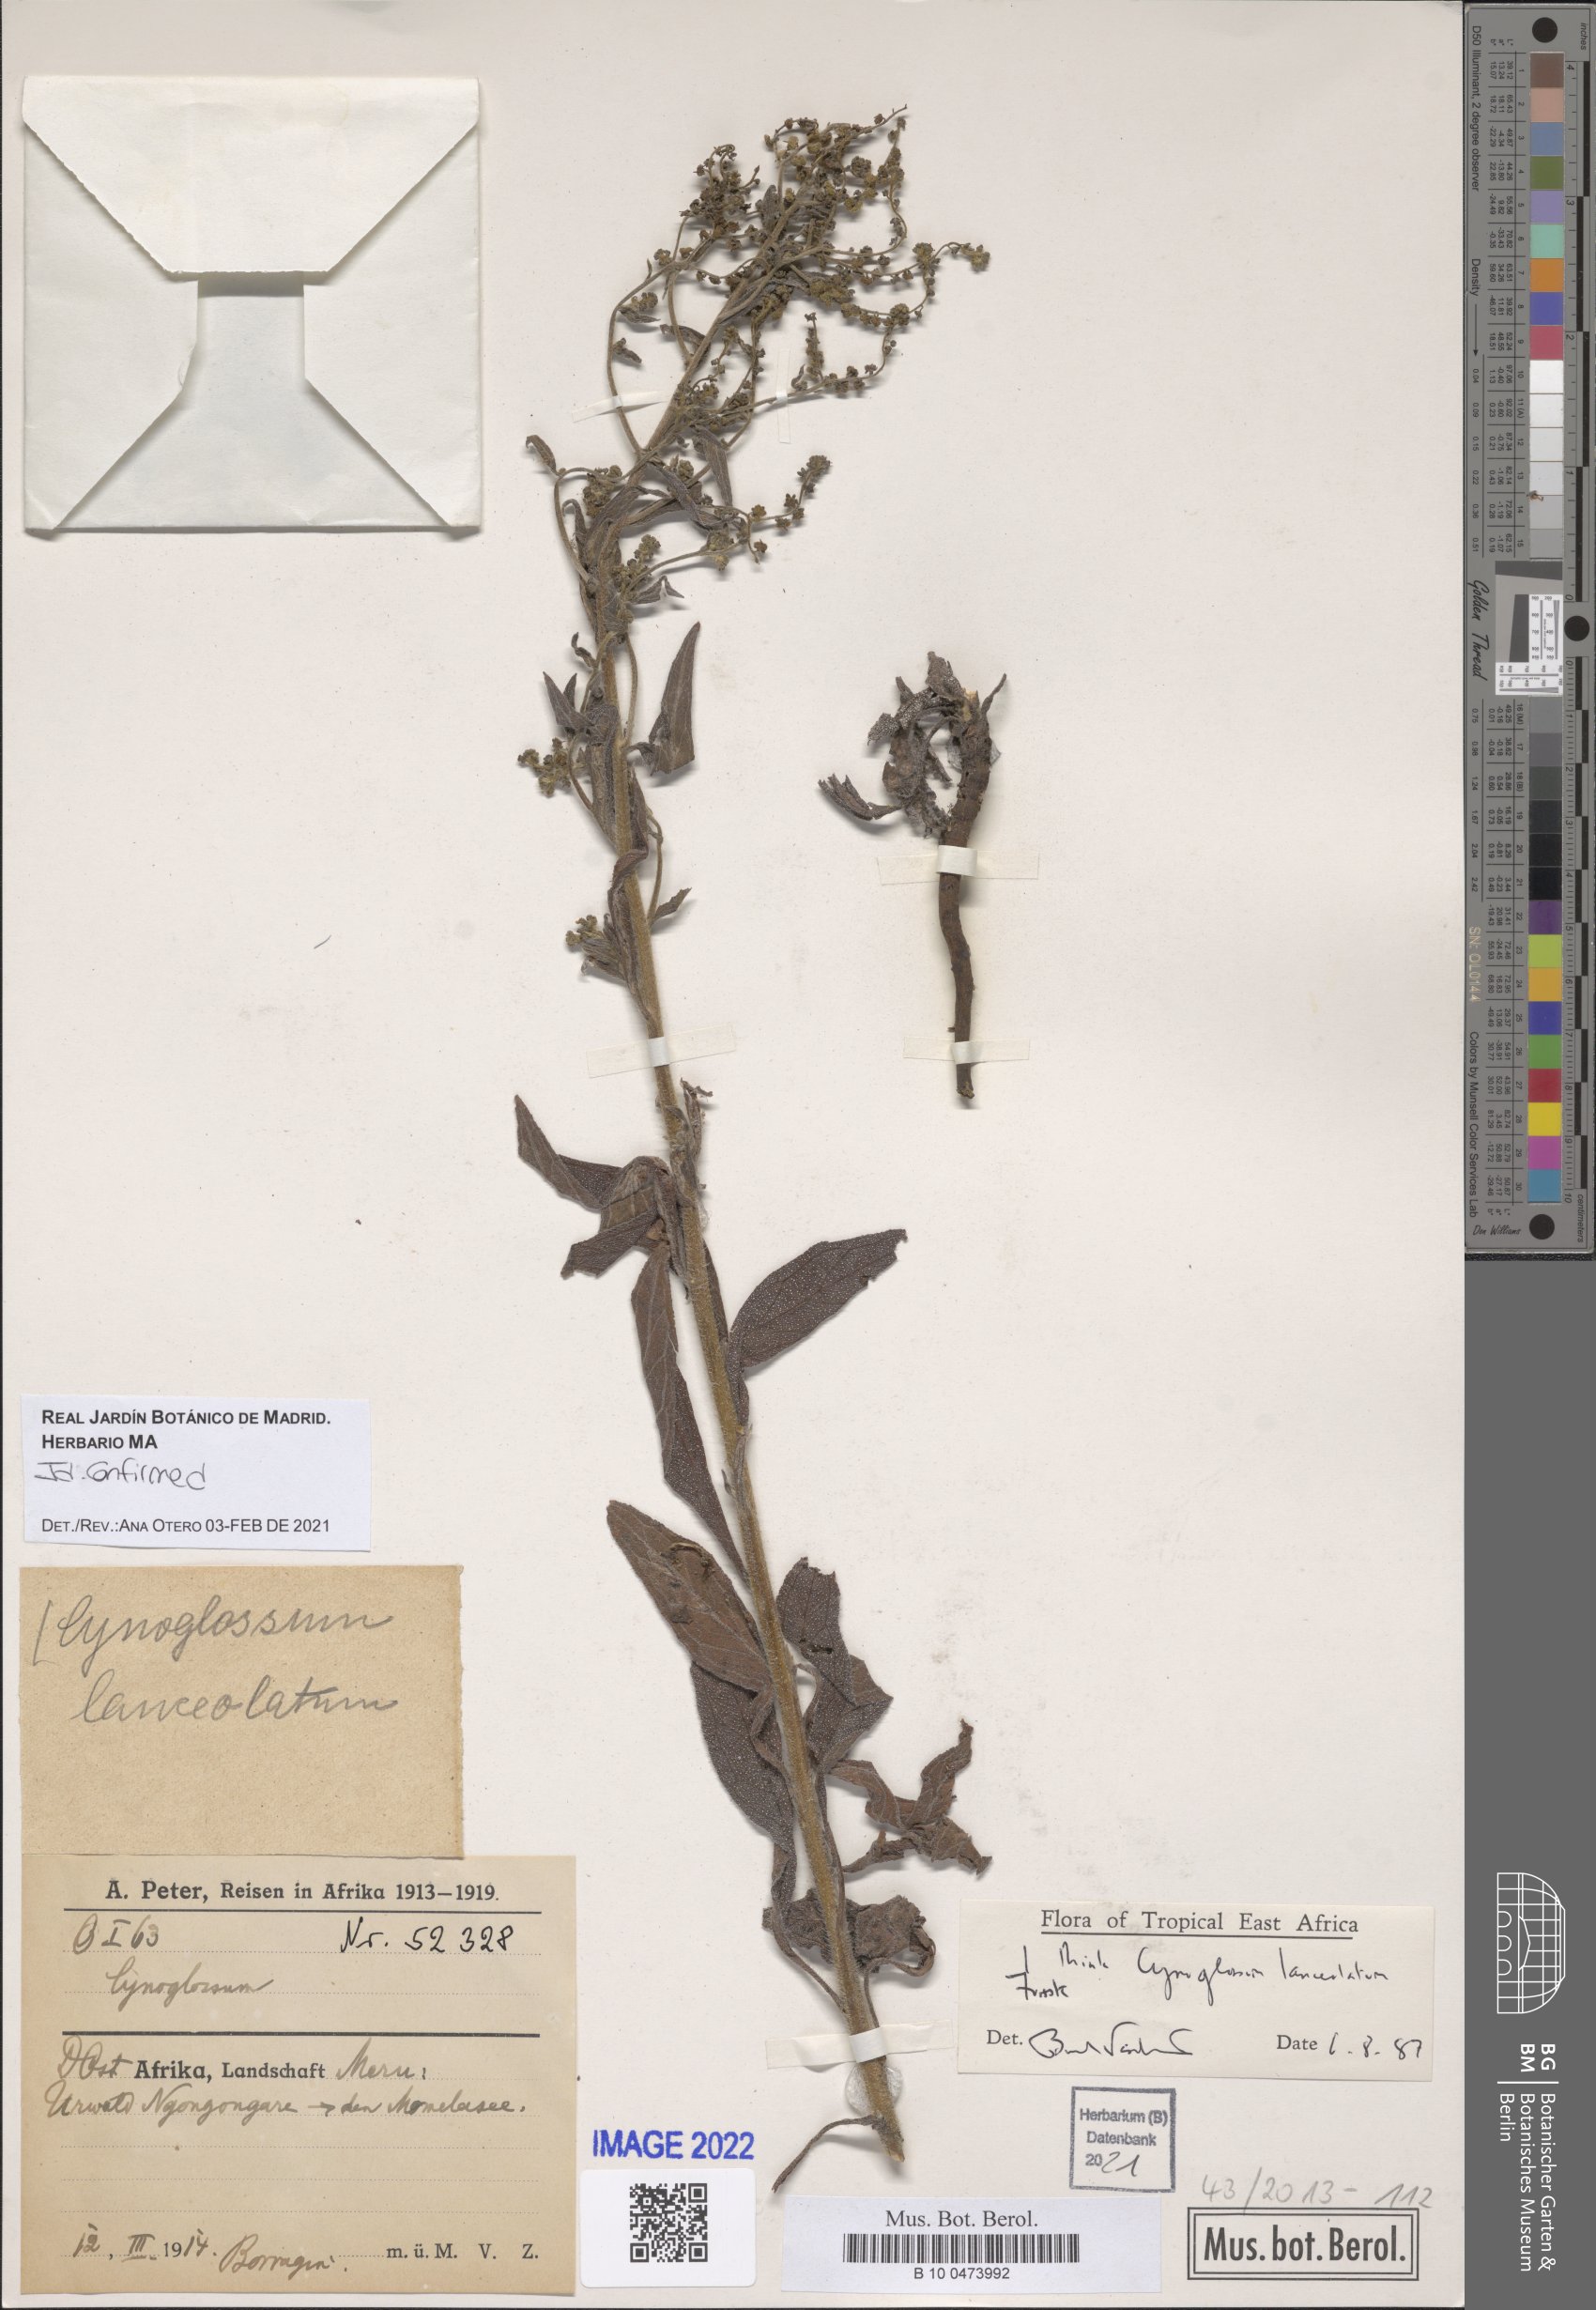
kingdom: Plantae
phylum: Tracheophyta
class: Magnoliopsida
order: Boraginales
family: Boraginaceae
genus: Paracynoglossum
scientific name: Paracynoglossum lanceolatum
